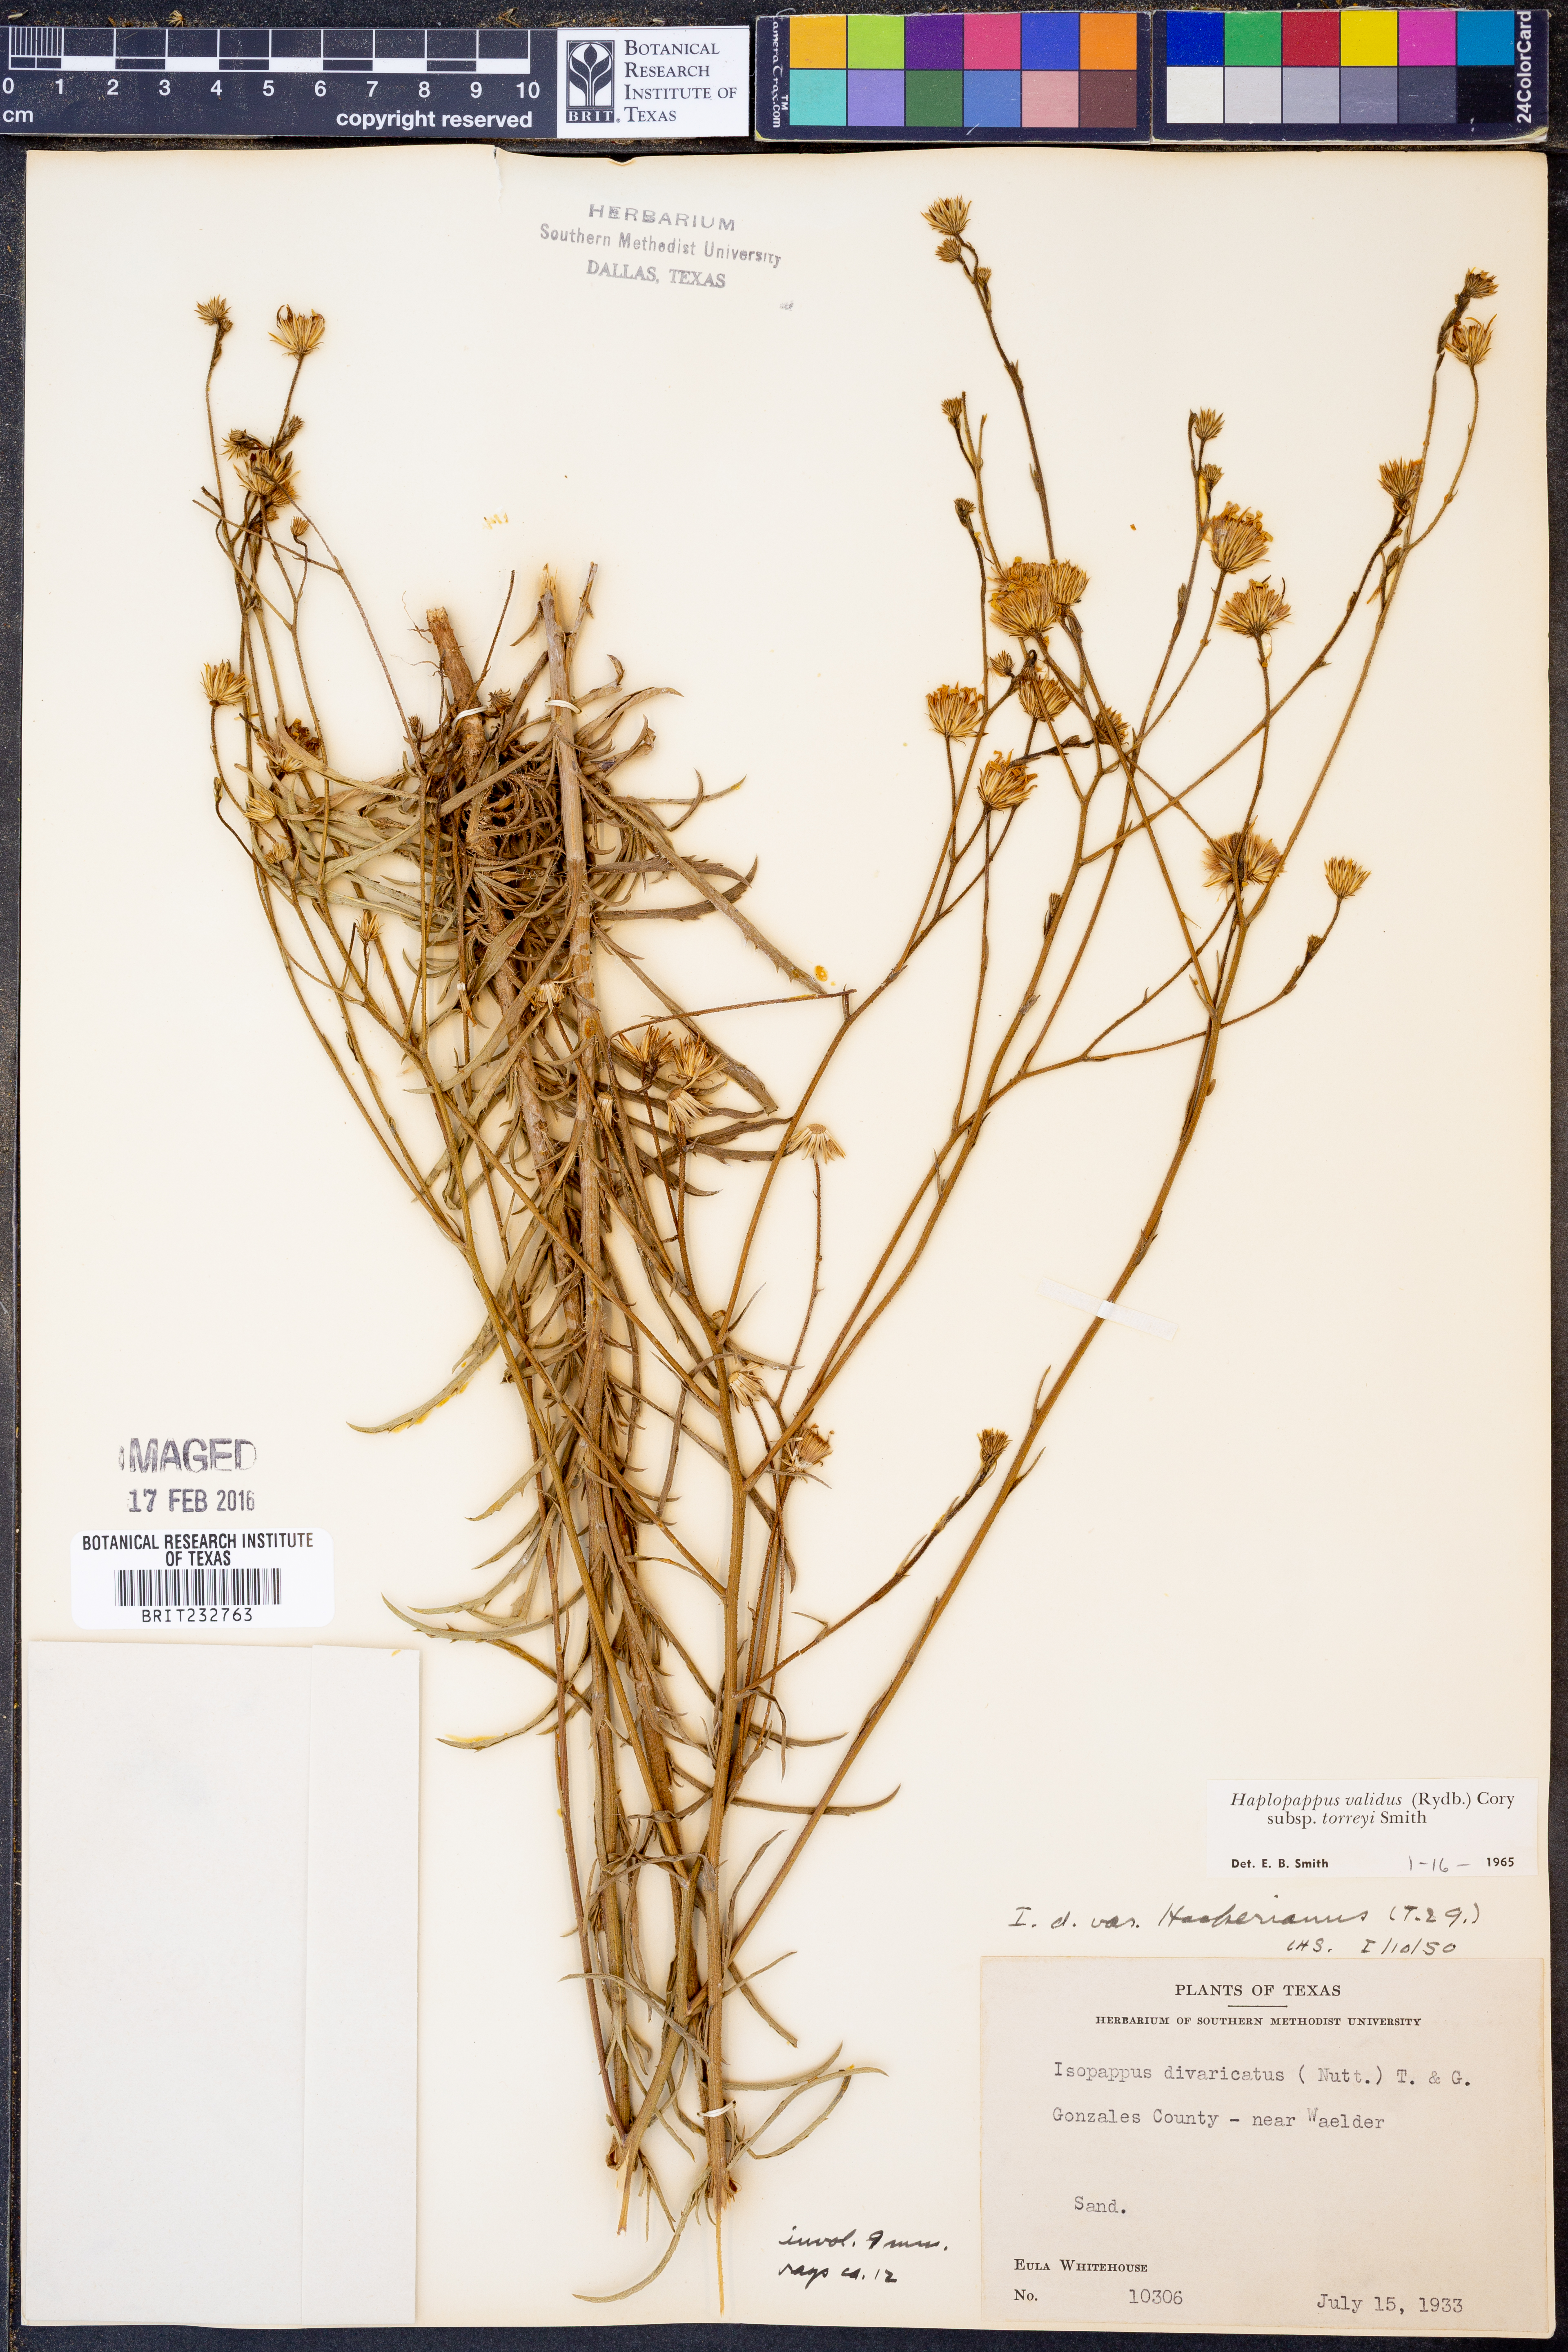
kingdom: Plantae
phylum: Tracheophyta
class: Magnoliopsida
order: Asterales
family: Asteraceae
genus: Croptilon
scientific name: Croptilon hookerianum
